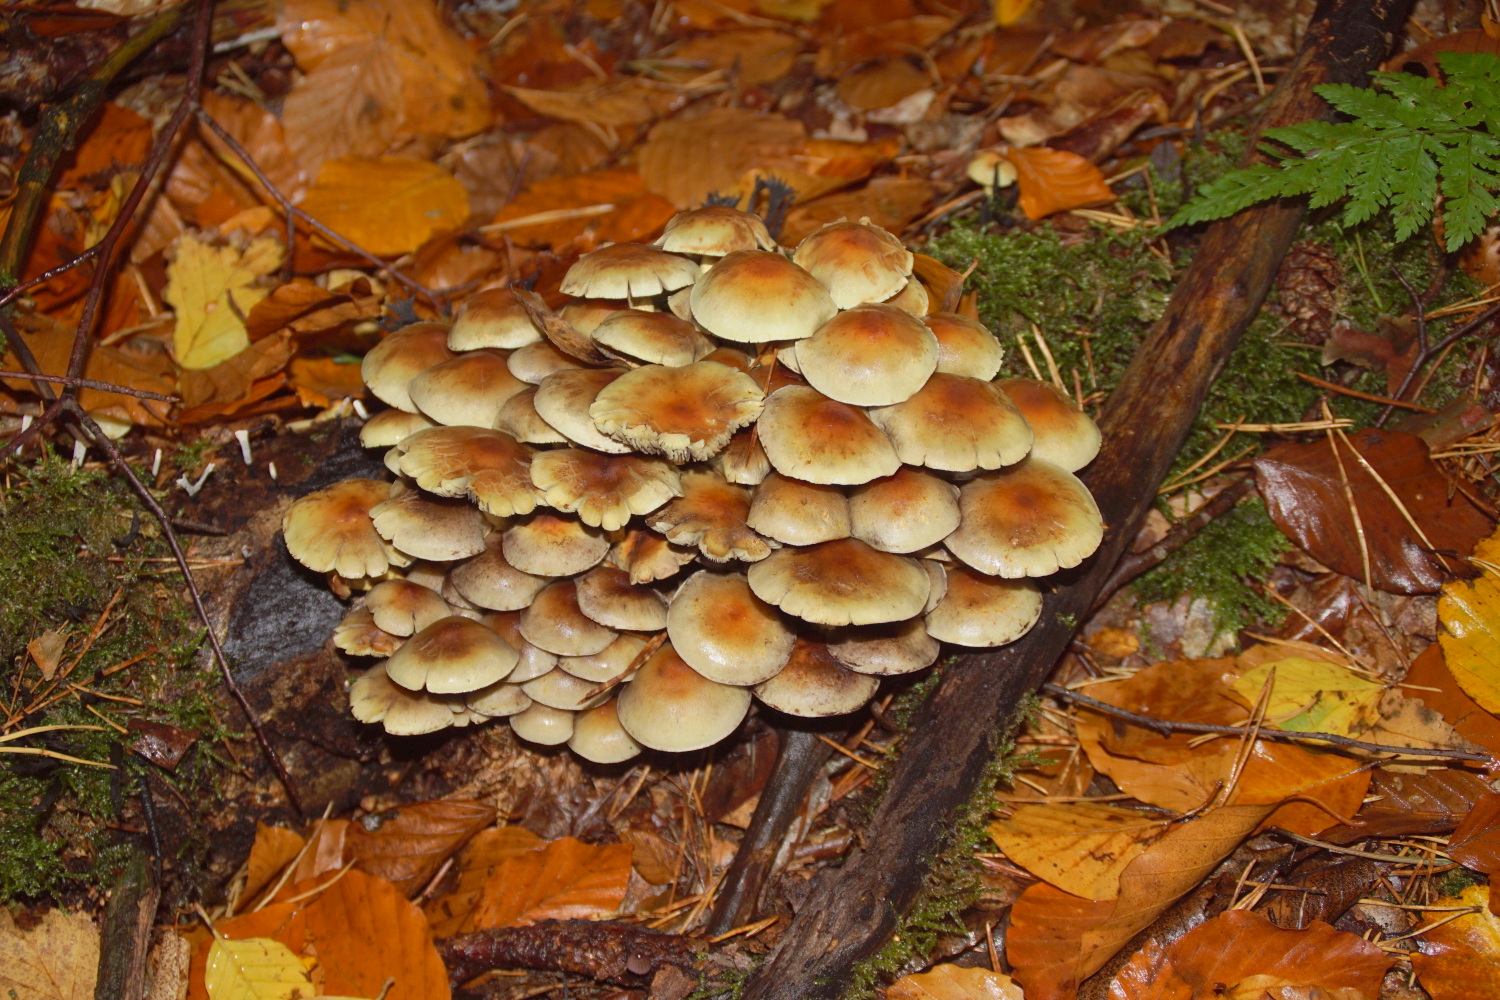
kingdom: Fungi
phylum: Basidiomycota
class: Agaricomycetes
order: Agaricales
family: Strophariaceae
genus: Hypholoma
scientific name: Hypholoma capnoides
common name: gran-svovlhat
